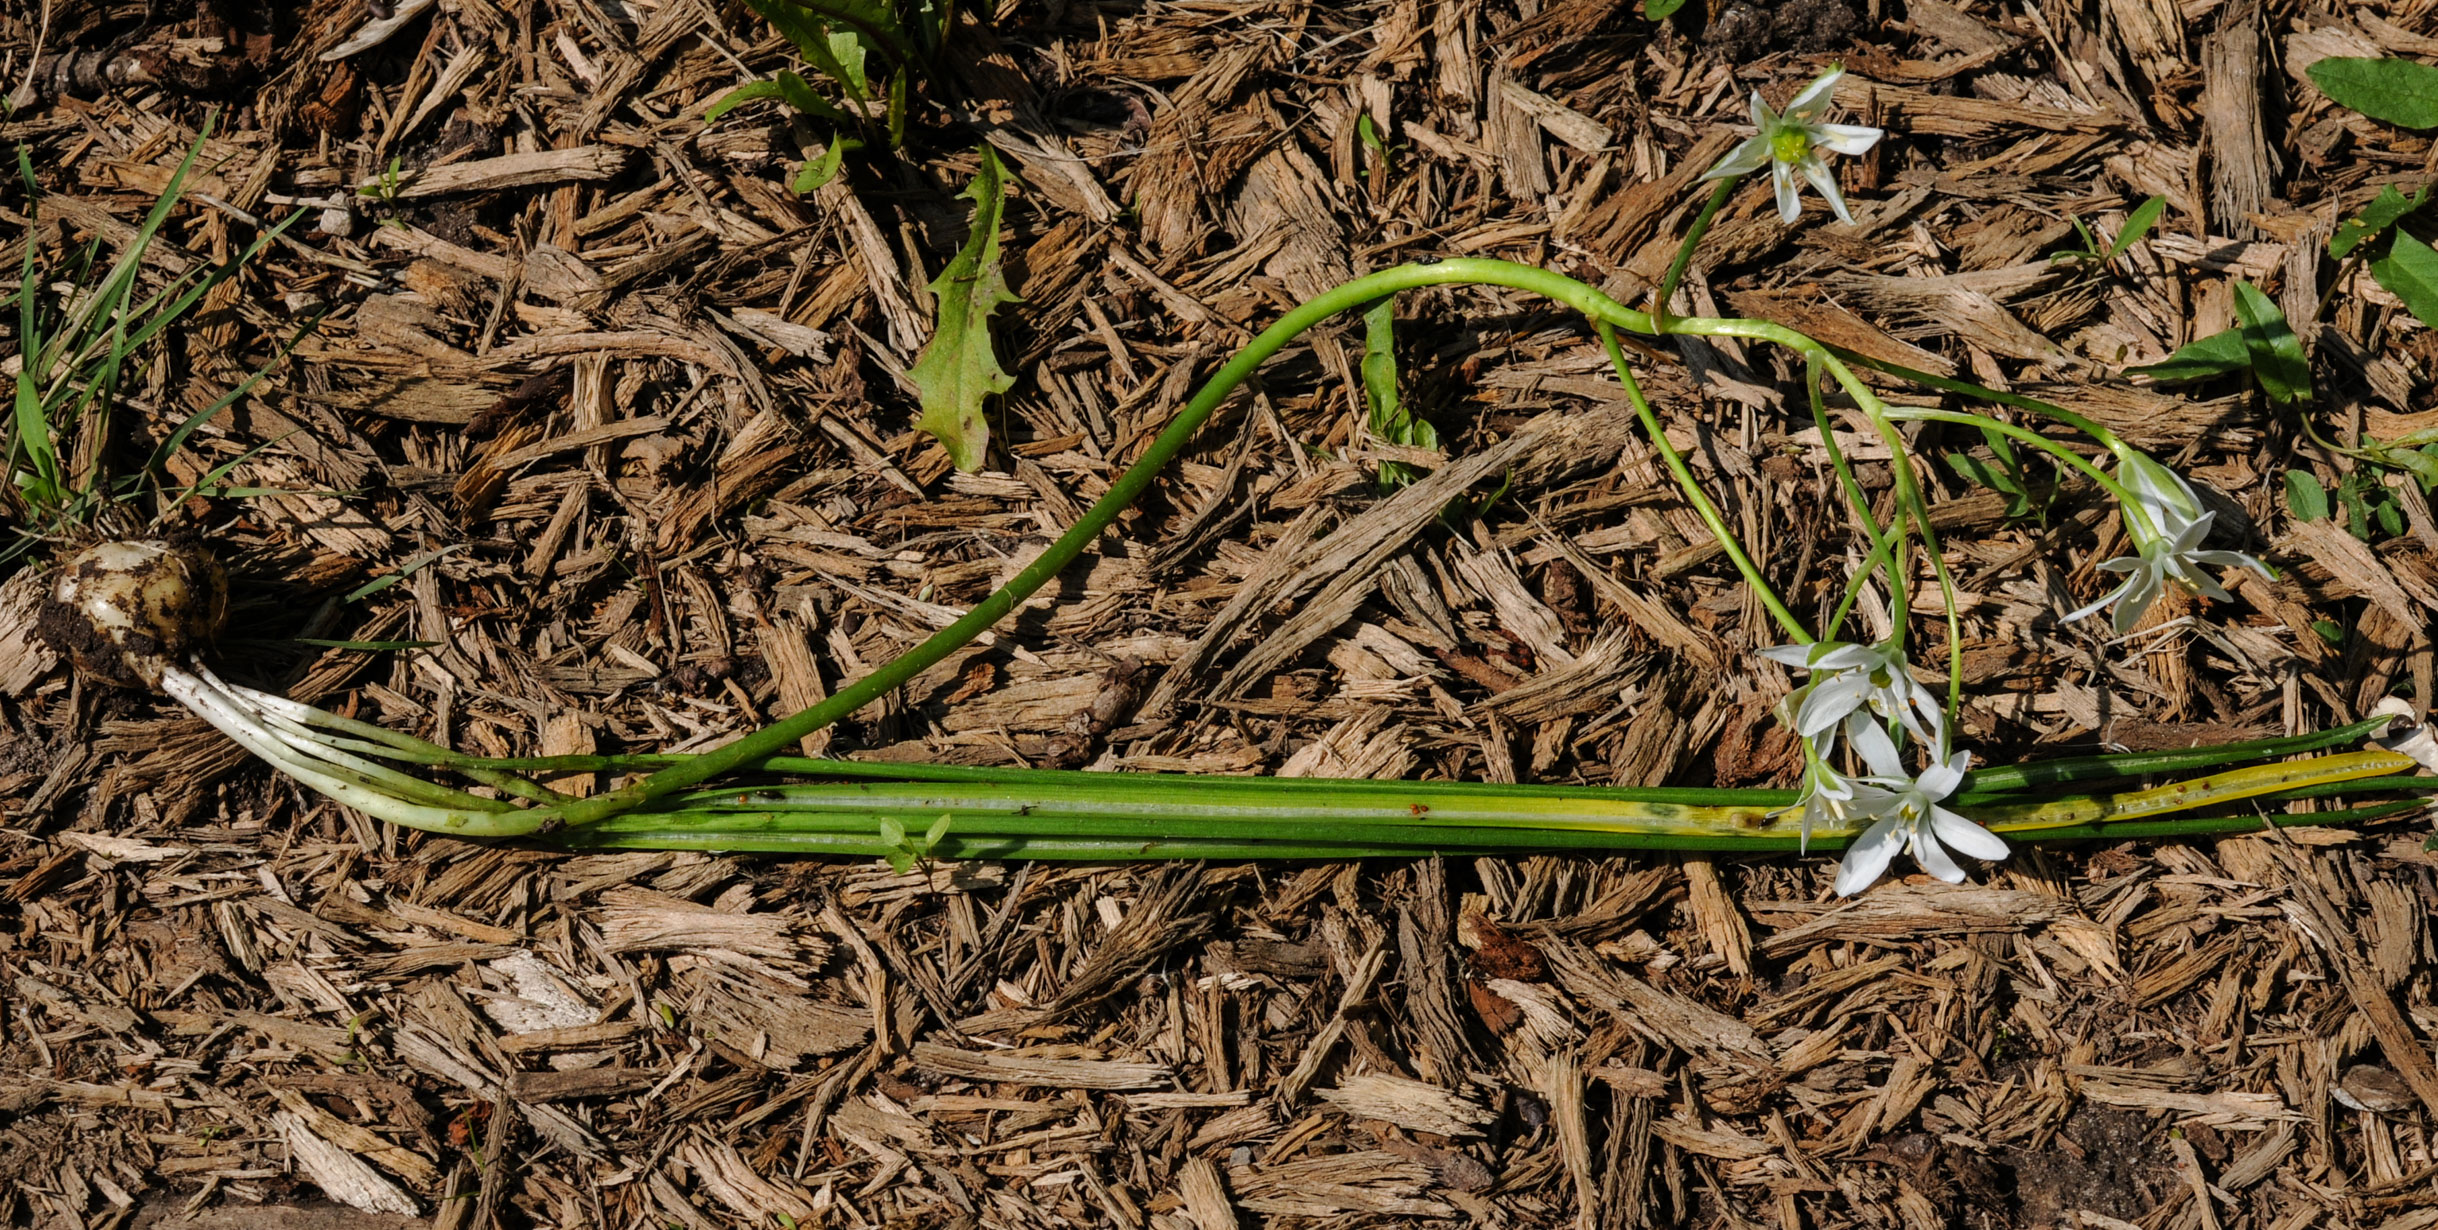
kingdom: Plantae
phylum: Tracheophyta
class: Liliopsida
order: Asparagales
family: Asparagaceae
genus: Ornithogalum
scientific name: Ornithogalum umbellatum
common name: Garden star-of-bethlehem
